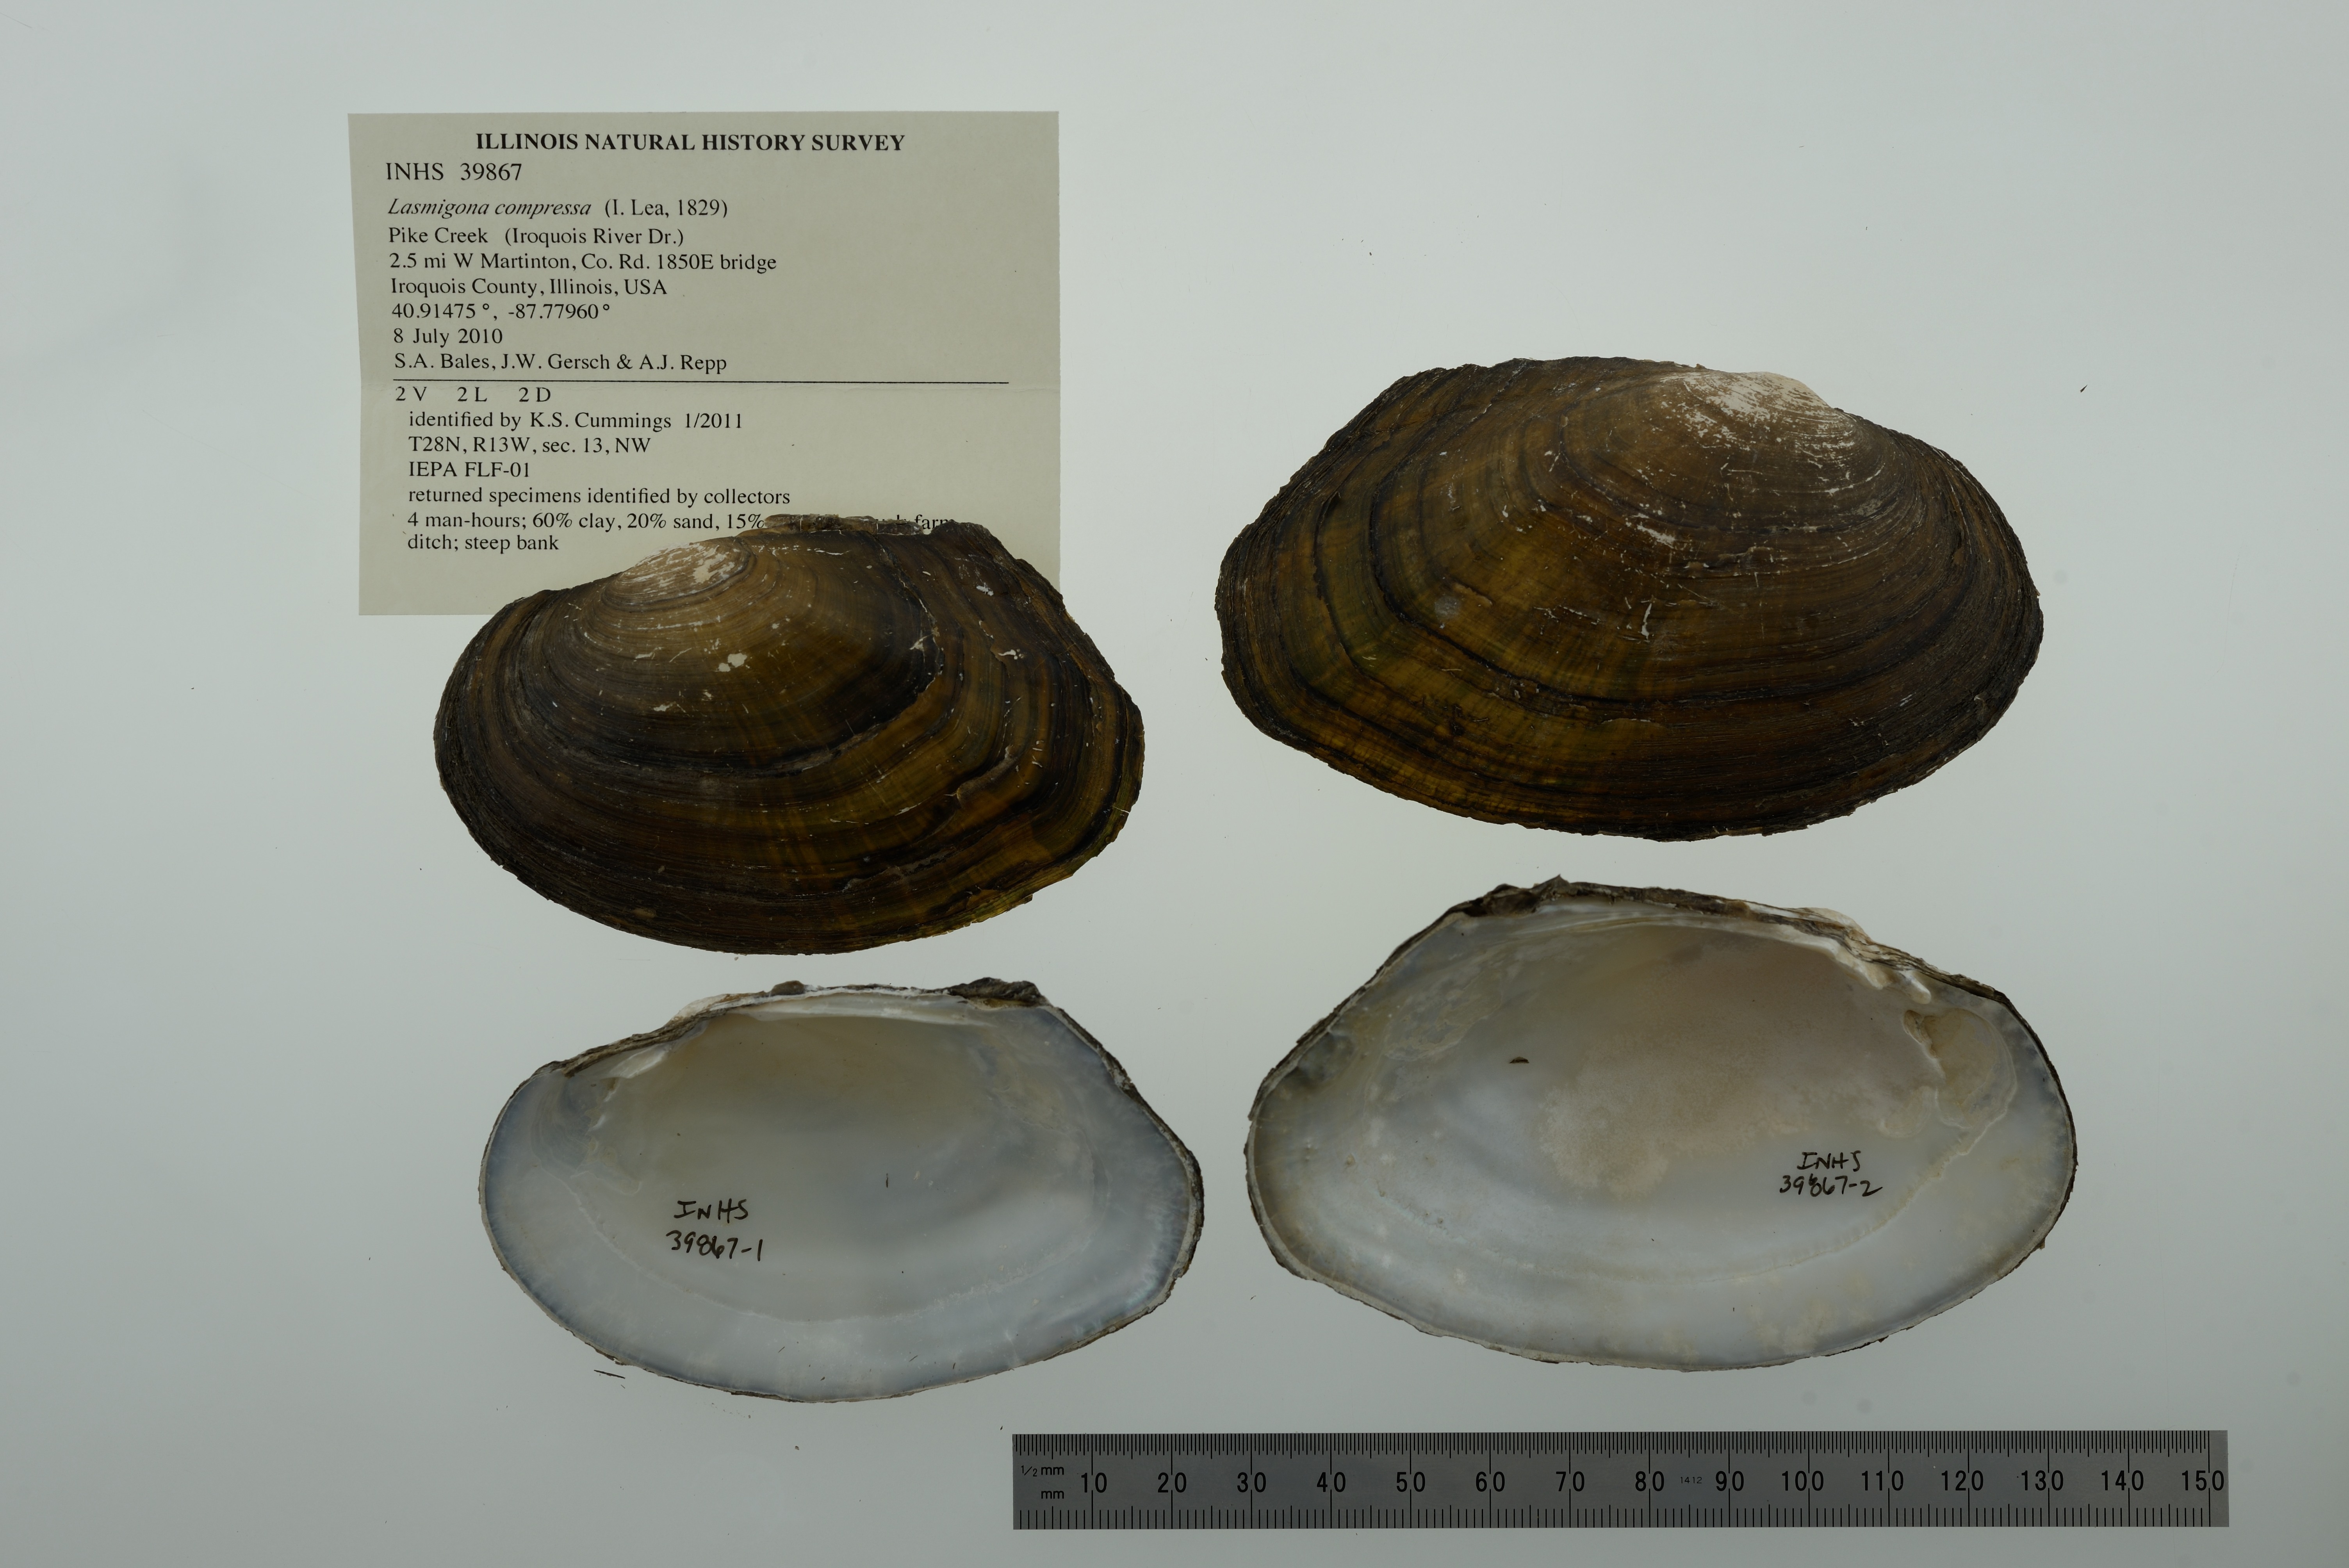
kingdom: Animalia
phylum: Mollusca
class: Bivalvia
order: Unionida
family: Unionidae
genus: Lasmigona
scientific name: Lasmigona compressa
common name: Creek heelsplitter
